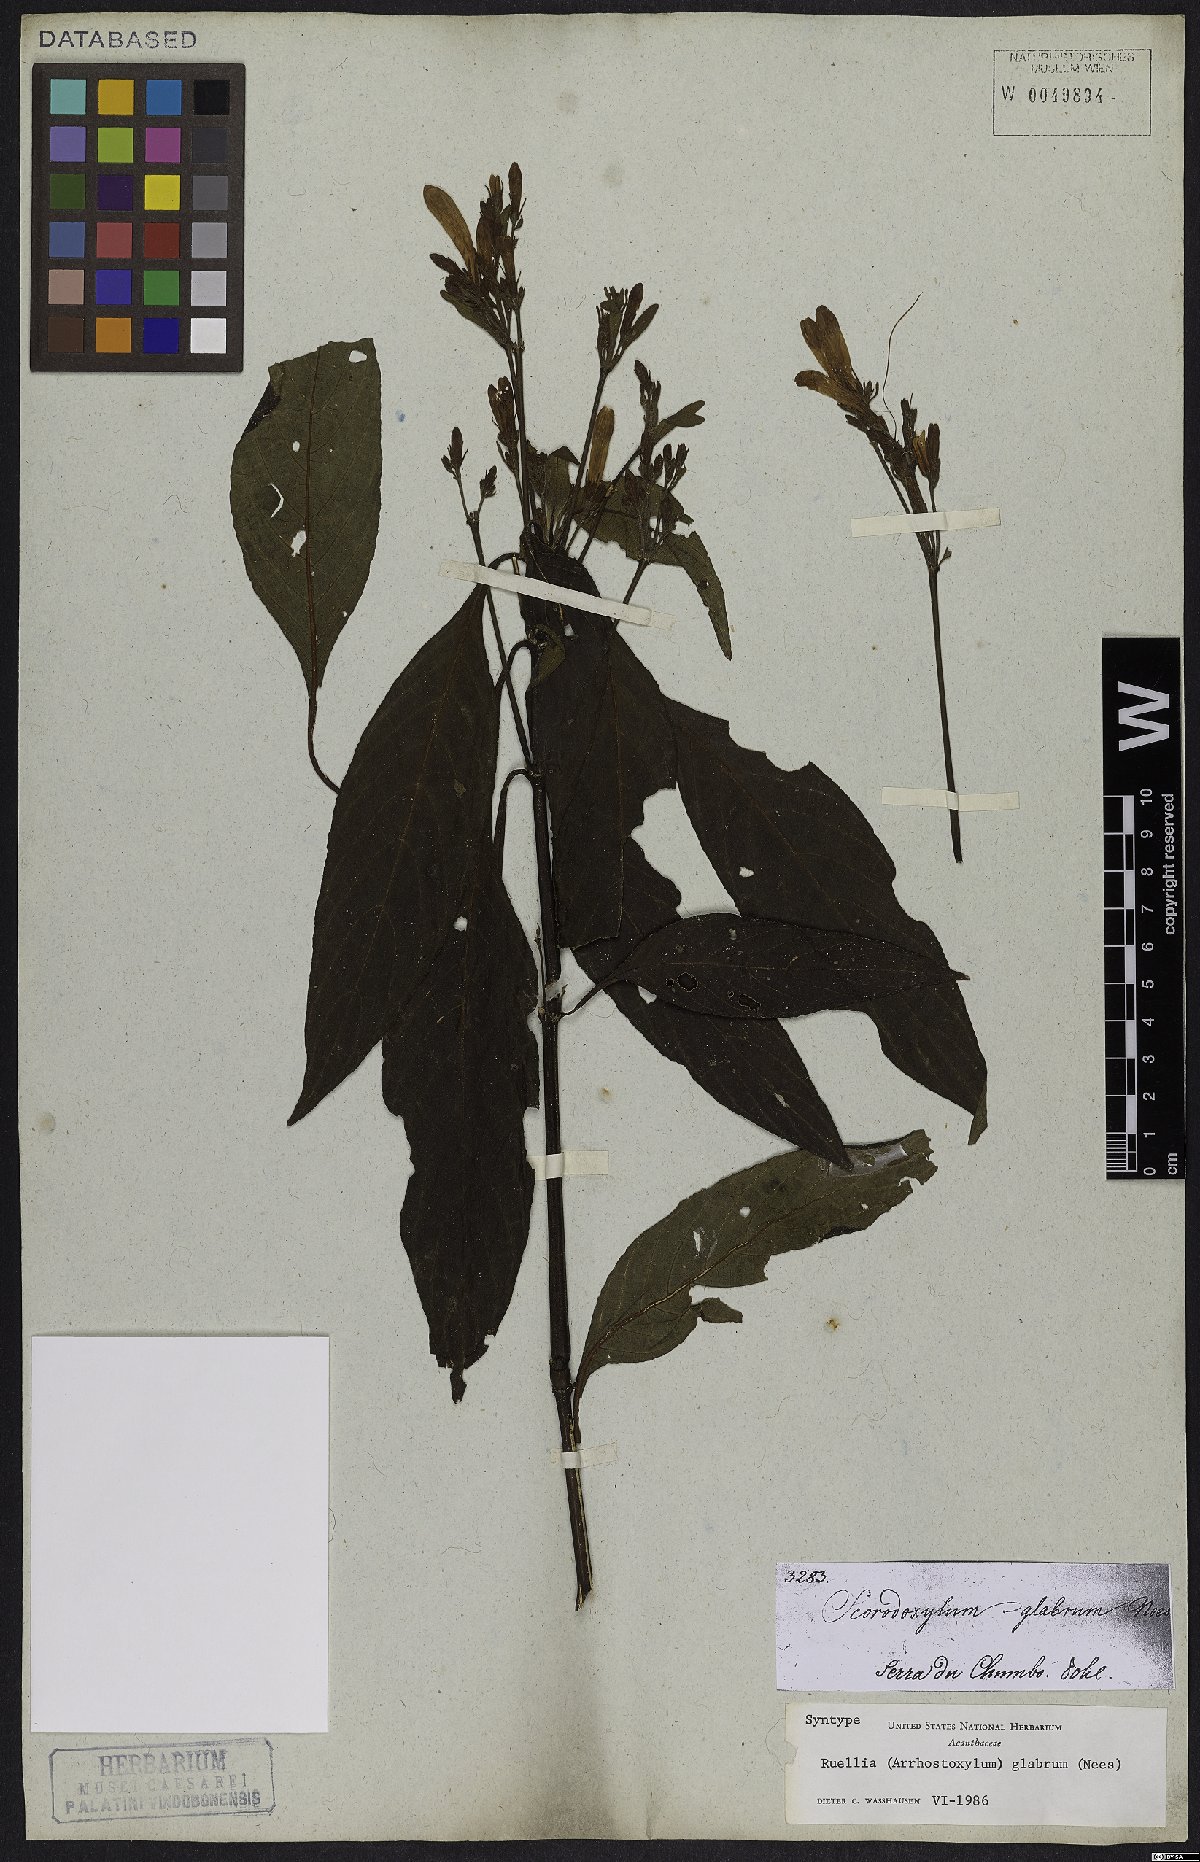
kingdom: Plantae
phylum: Tracheophyta
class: Magnoliopsida
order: Lamiales
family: Acanthaceae
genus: Ruellia
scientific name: Ruellia serrana
